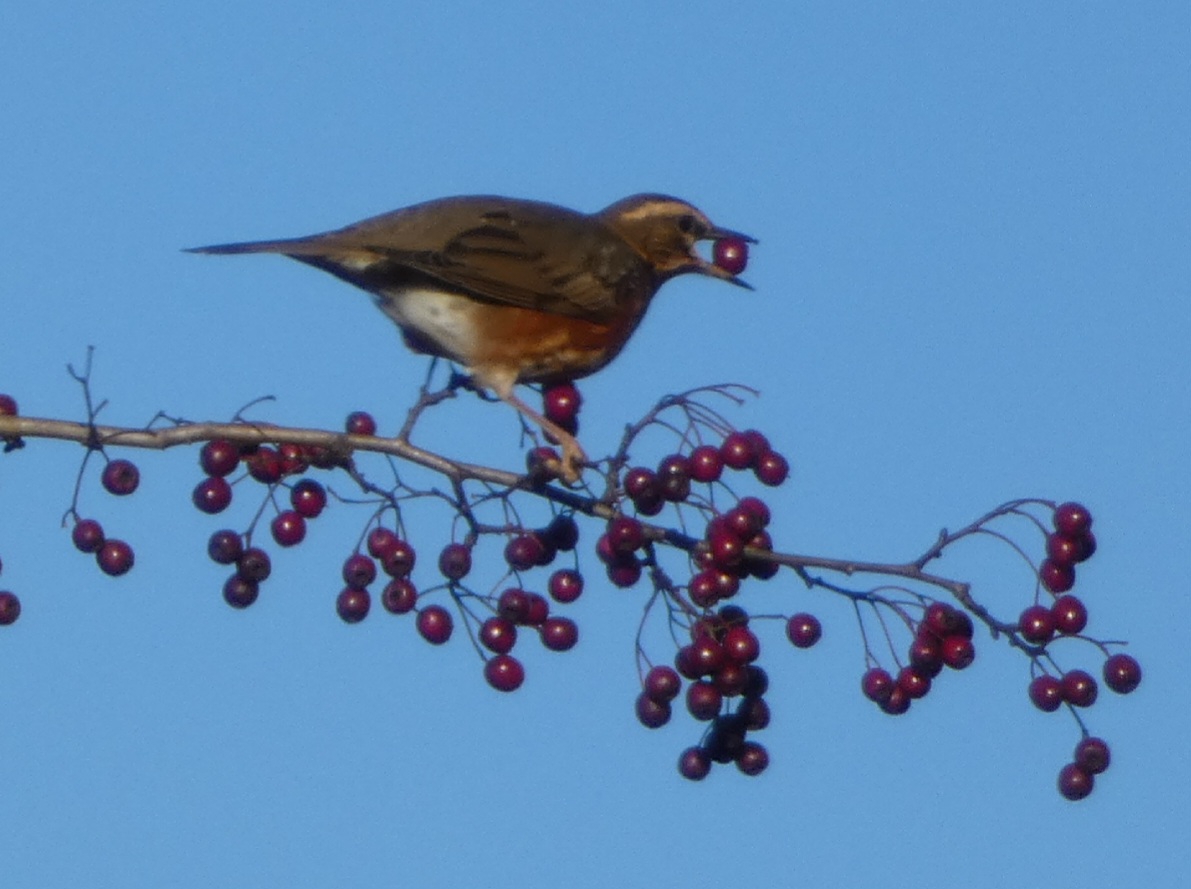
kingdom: Animalia
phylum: Chordata
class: Aves
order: Passeriformes
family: Turdidae
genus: Turdus
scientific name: Turdus iliacus
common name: Vindrossel
